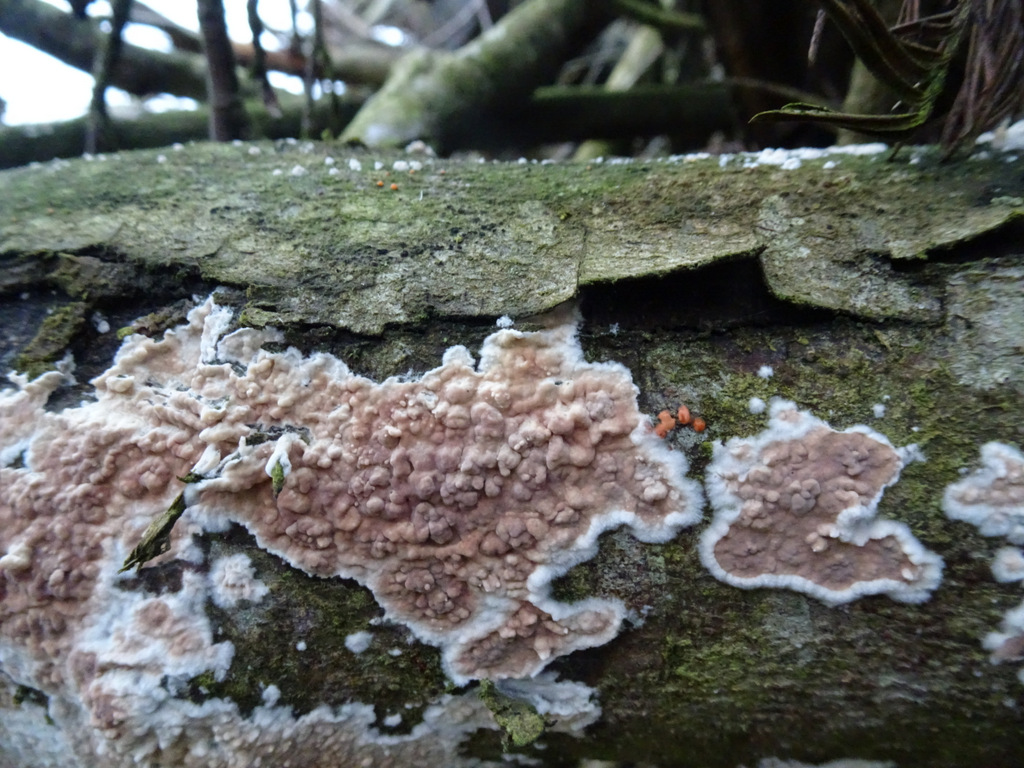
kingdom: Fungi
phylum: Basidiomycota
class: Agaricomycetes
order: Agaricales
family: Physalacriaceae
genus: Cylindrobasidium
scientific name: Cylindrobasidium evolvens
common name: sprækkehinde
